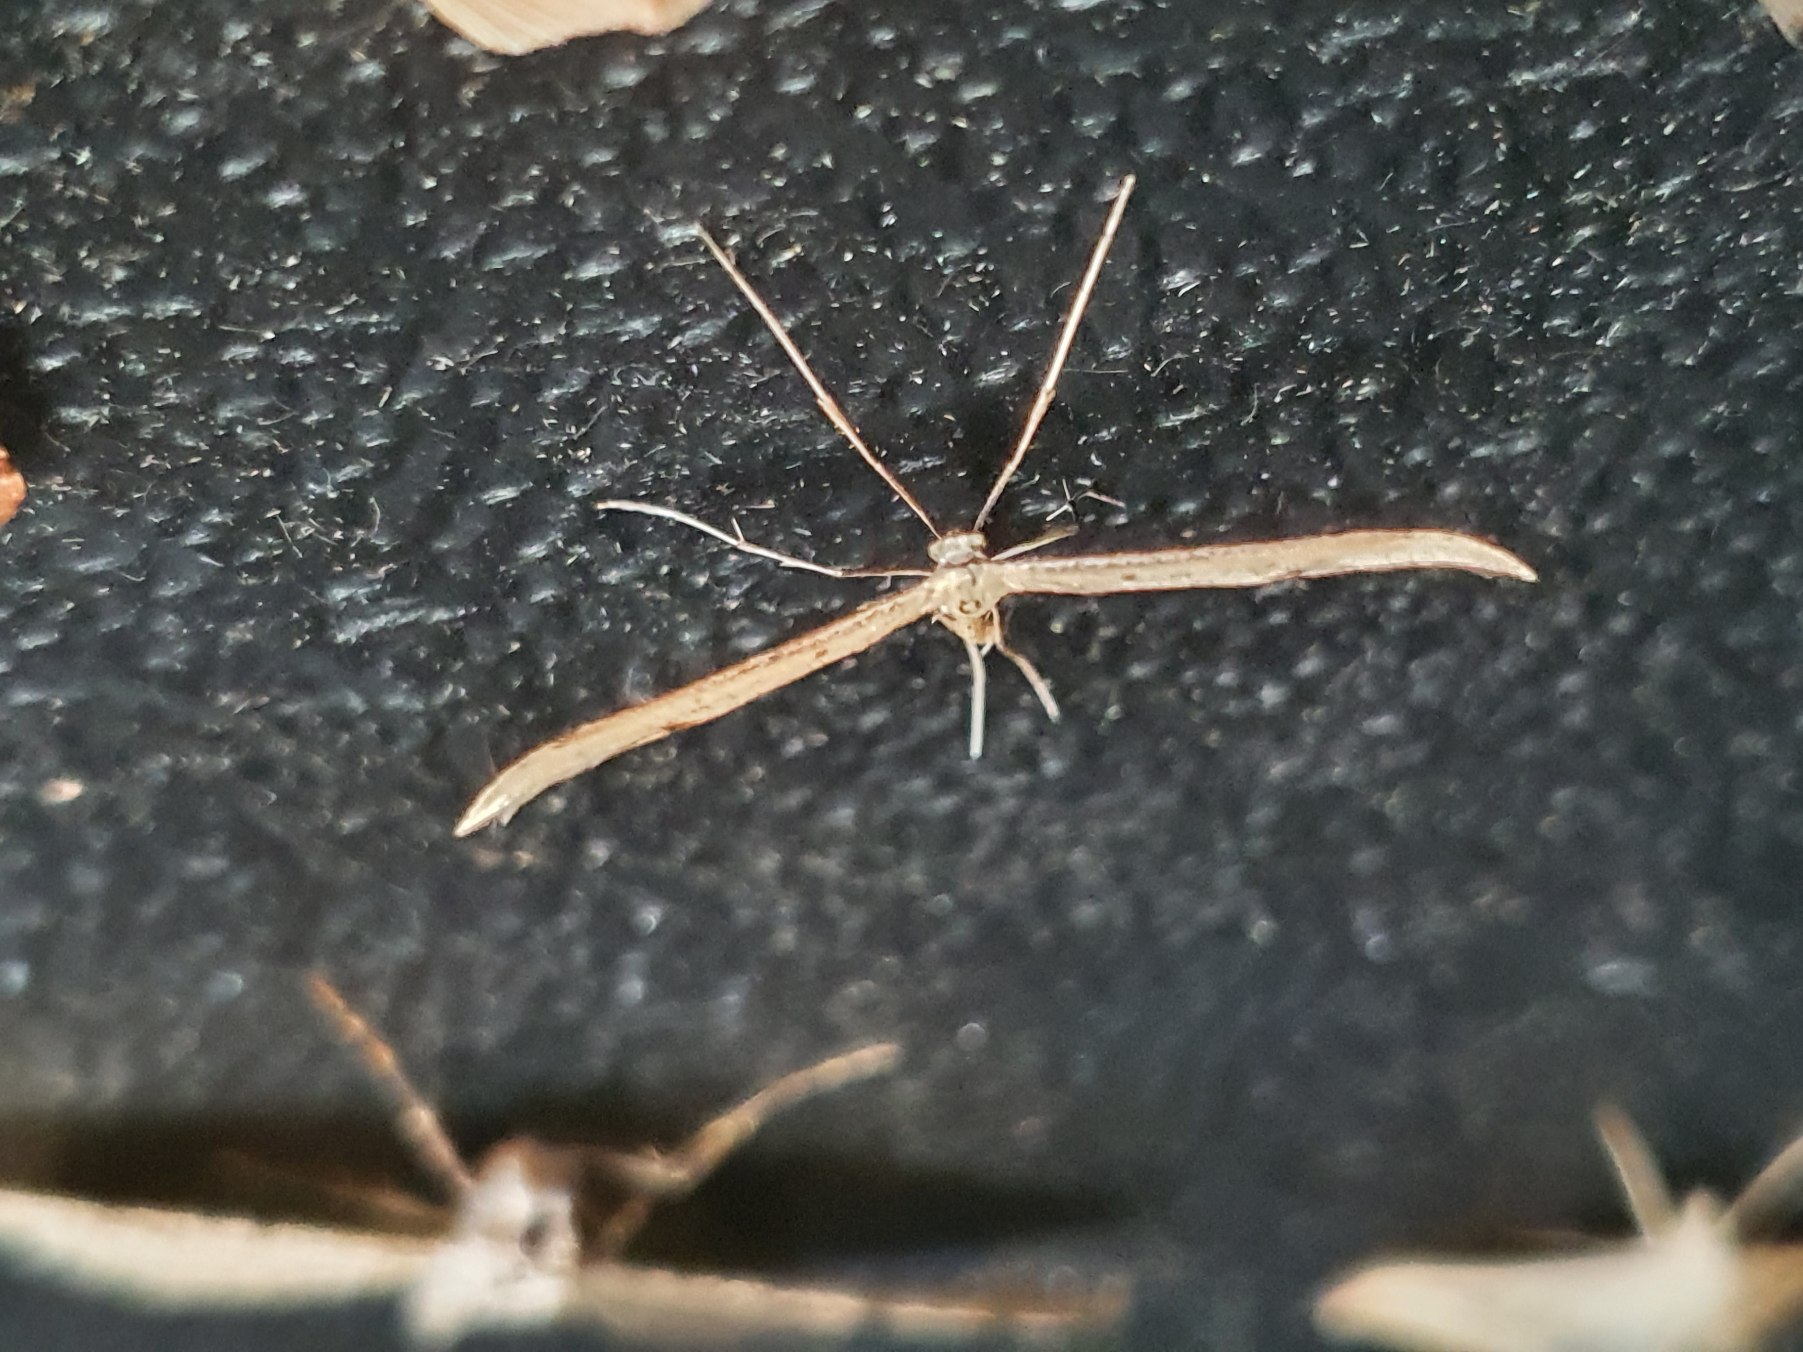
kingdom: Animalia
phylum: Arthropoda
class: Insecta
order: Lepidoptera
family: Pterophoridae
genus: Emmelina
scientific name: Emmelina monodactyla
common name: Snerlefjermøl
